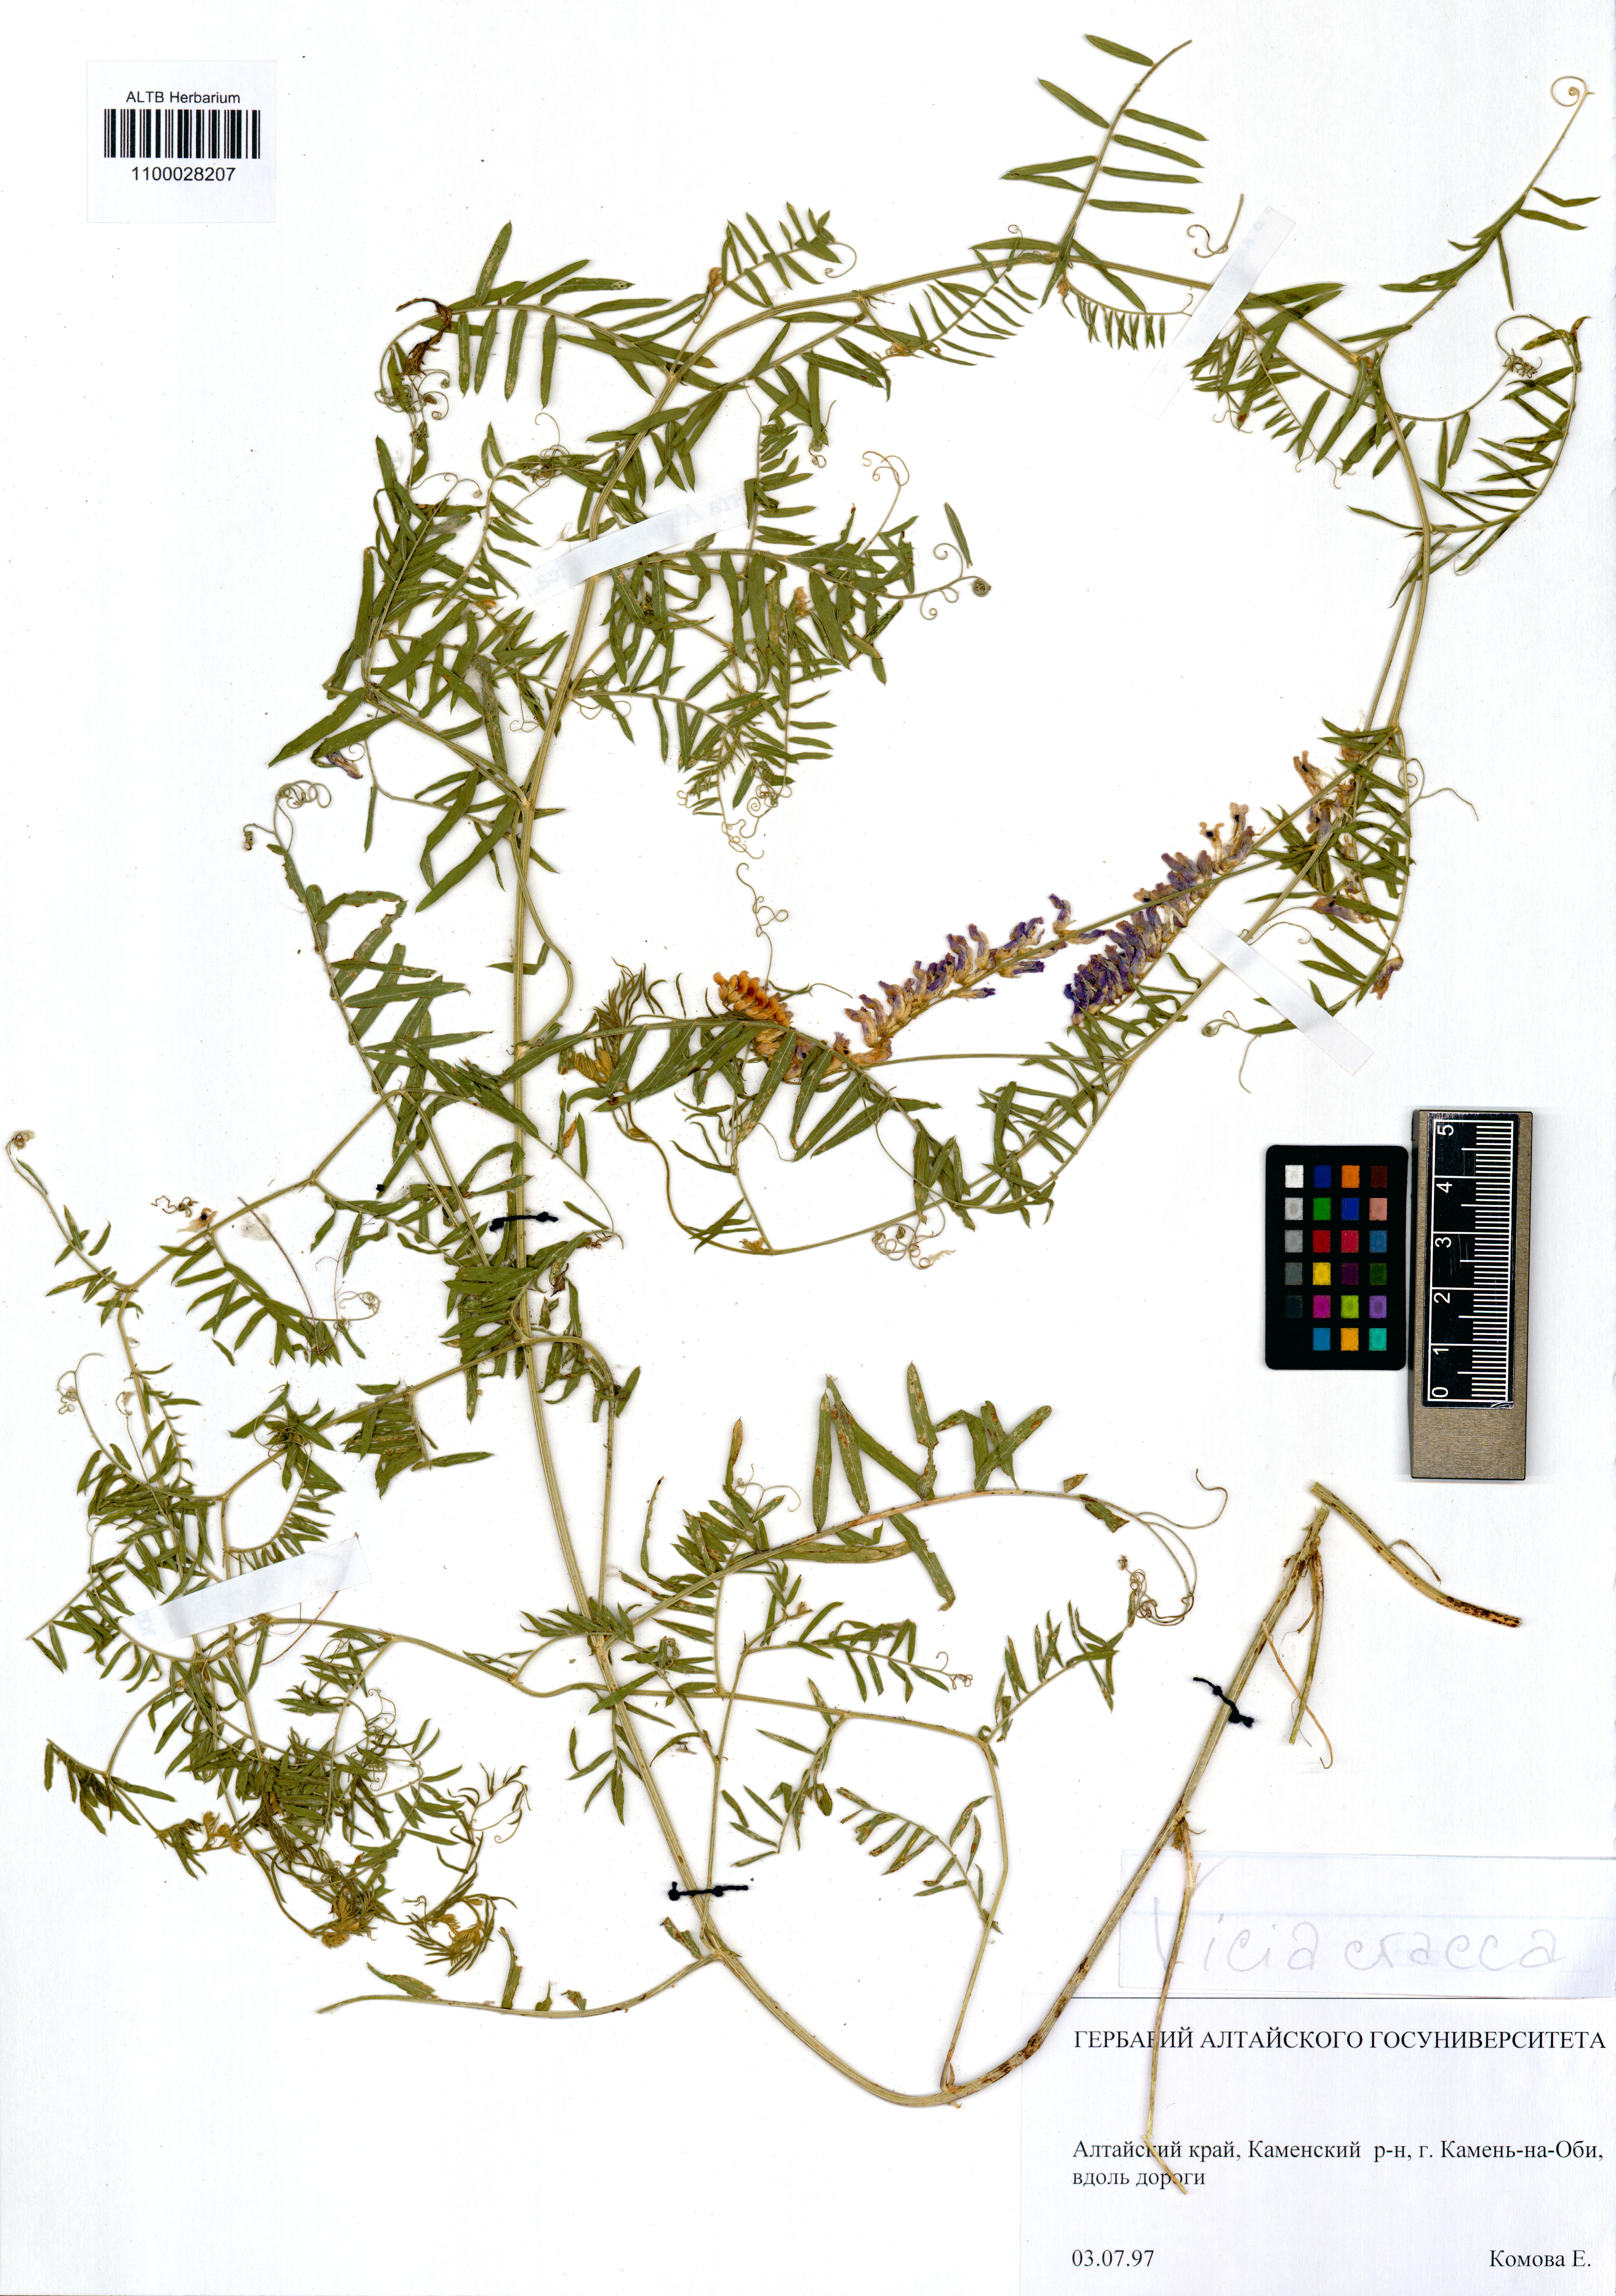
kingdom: Plantae
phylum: Tracheophyta
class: Magnoliopsida
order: Fabales
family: Fabaceae
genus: Vicia
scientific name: Vicia cracca
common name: Bird vetch
